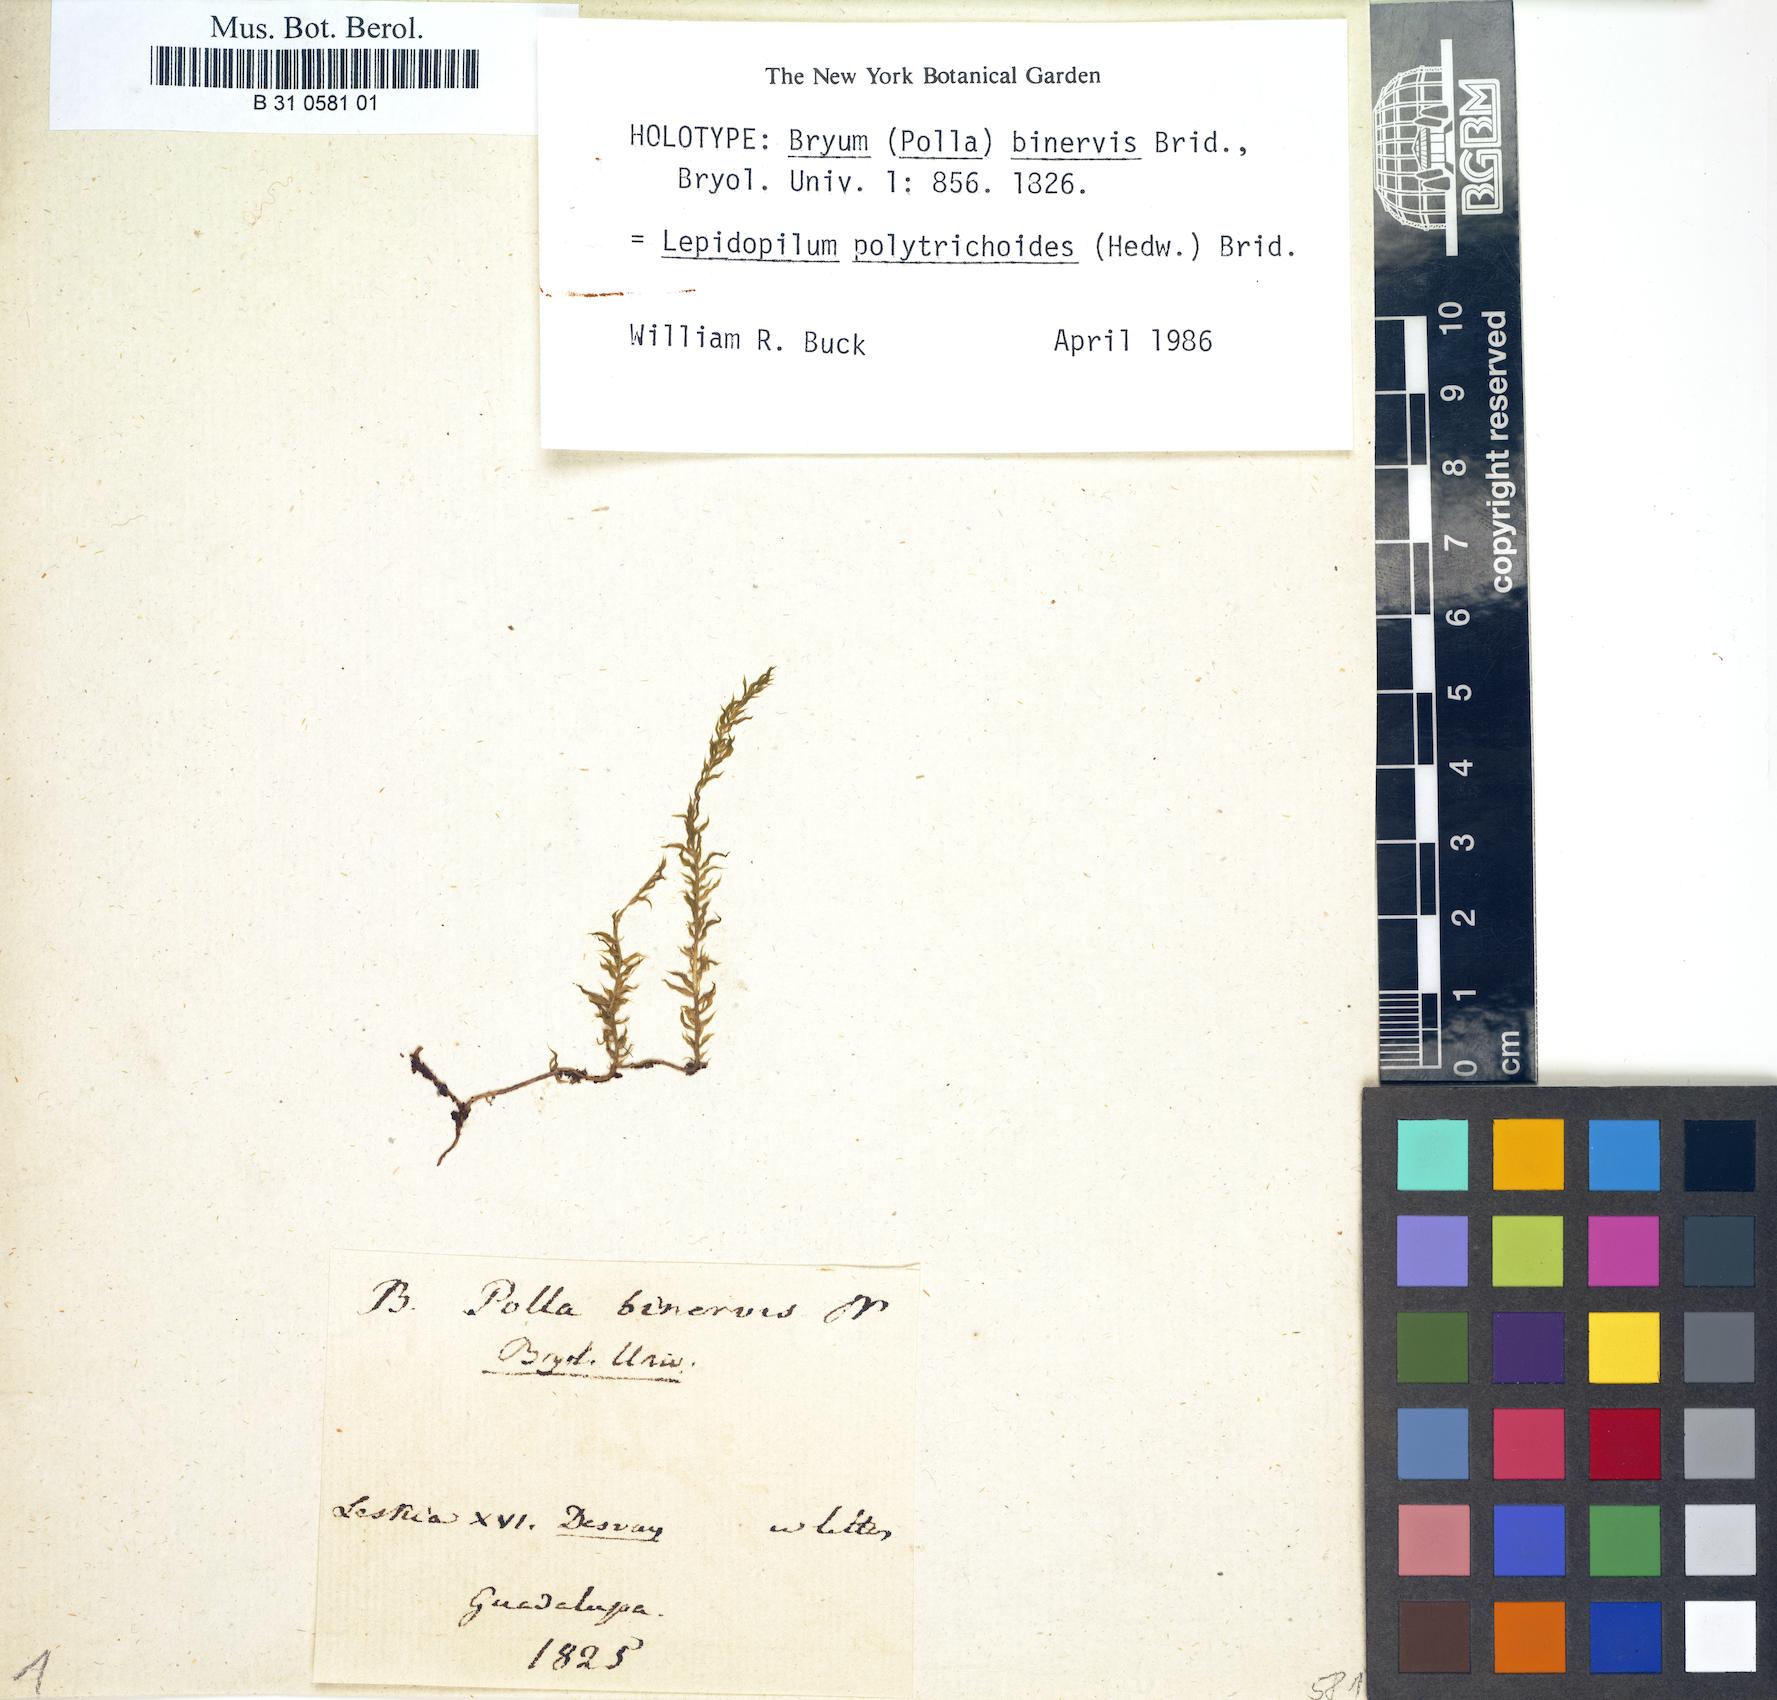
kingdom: Plantae
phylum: Bryophyta
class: Bryopsida
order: Hookeriales
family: Pilotrichaceae
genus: Lepidopilum
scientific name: Lepidopilum polytrichoides
